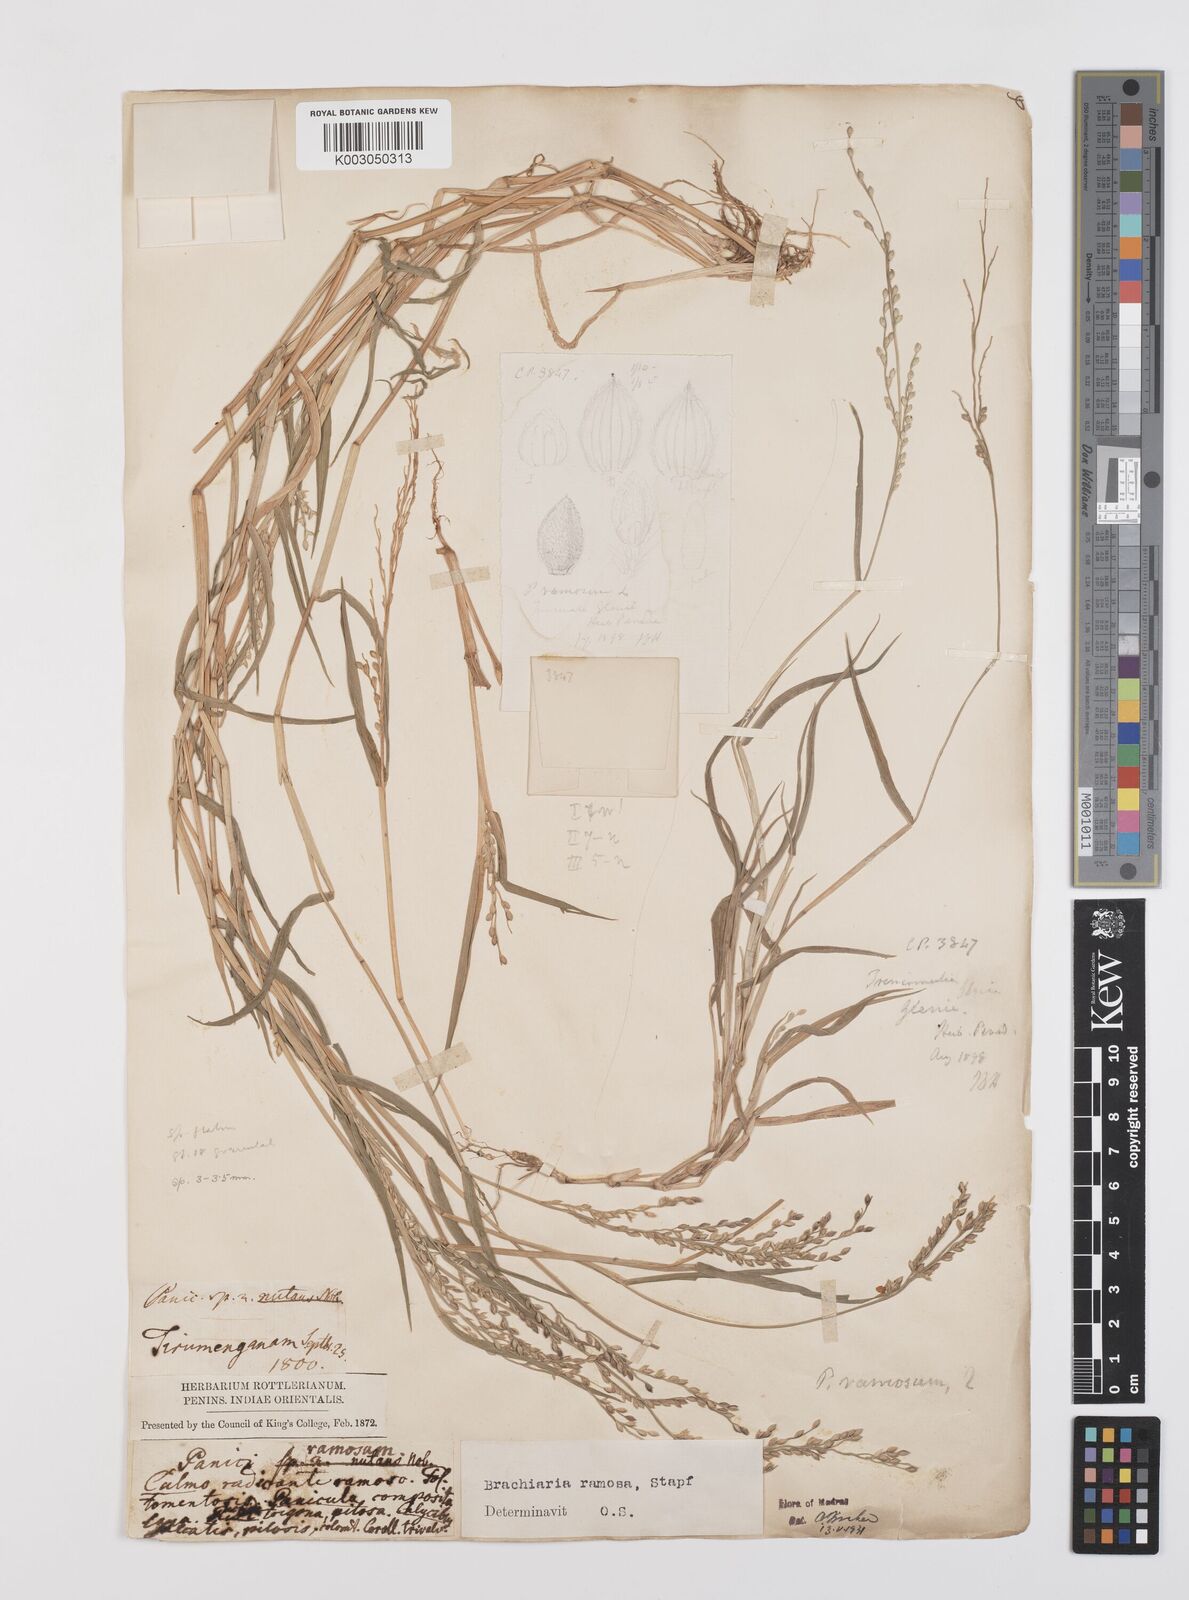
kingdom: Plantae
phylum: Tracheophyta
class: Liliopsida
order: Poales
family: Poaceae
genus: Urochloa
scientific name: Urochloa ramosa
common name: Browntop millet
